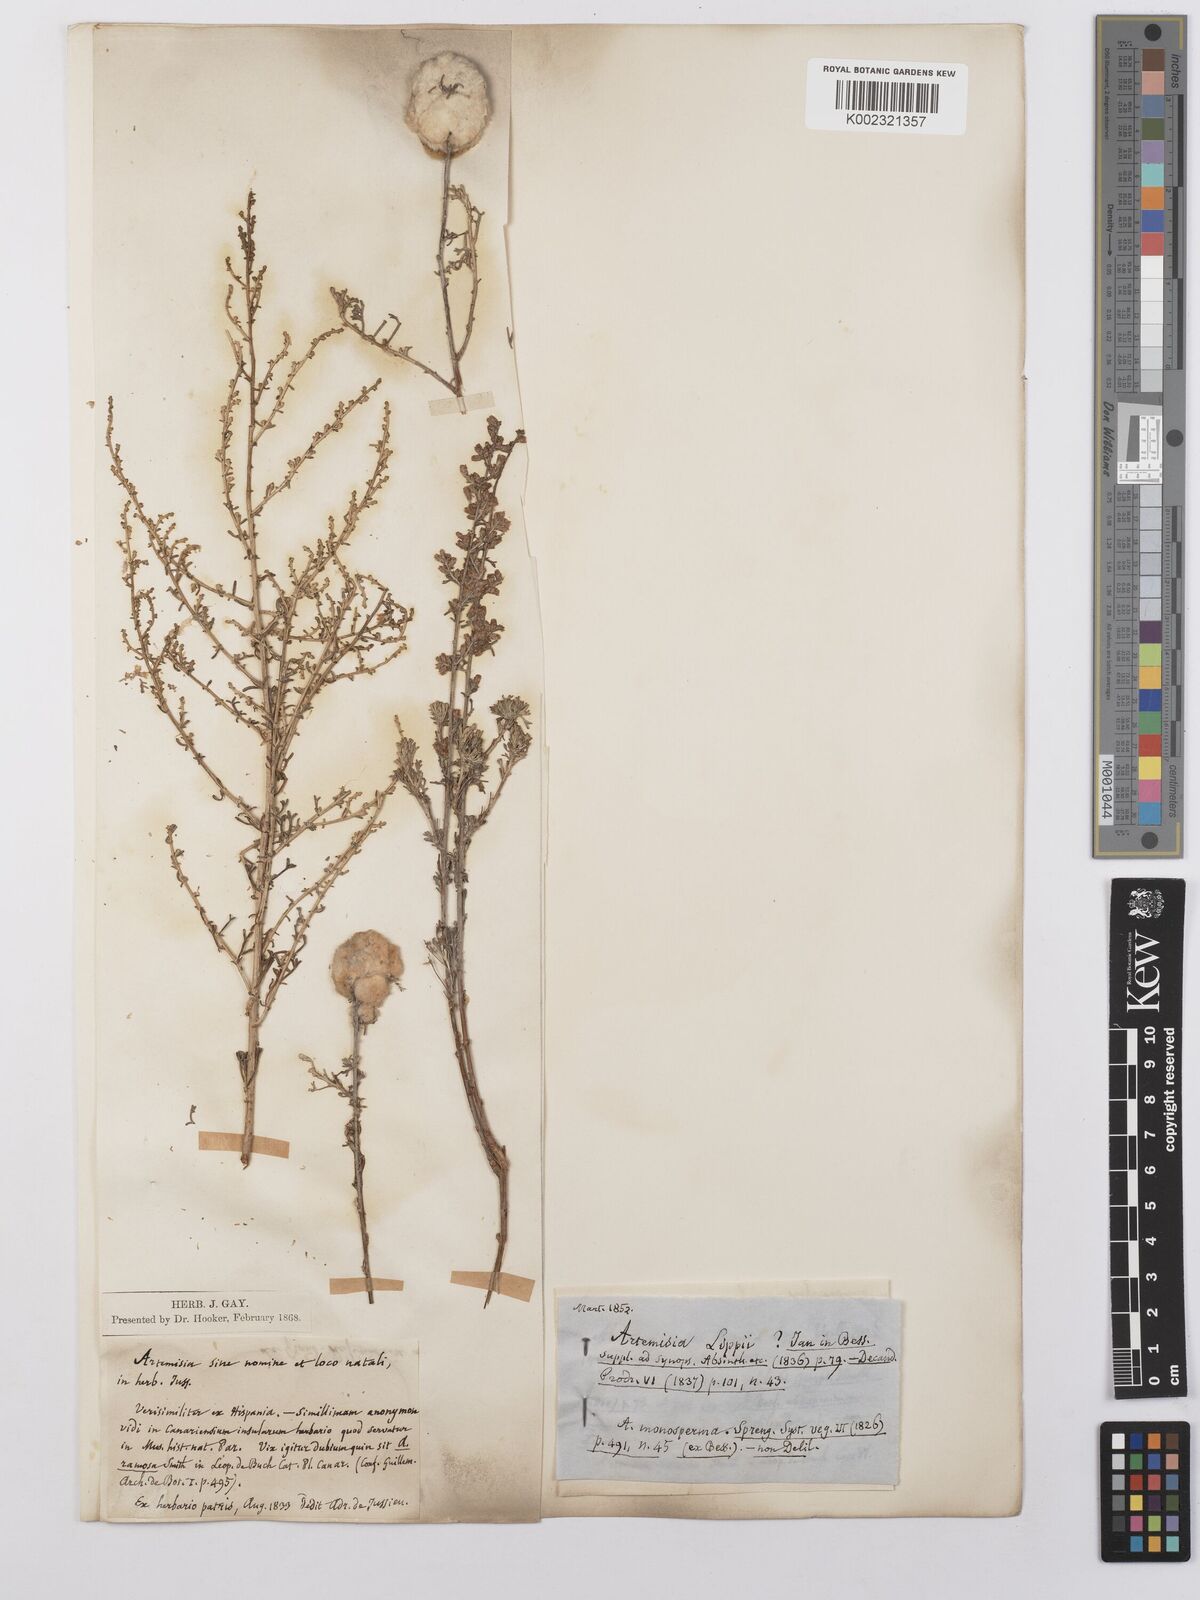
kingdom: Plantae
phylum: Tracheophyta
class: Magnoliopsida
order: Asterales
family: Asteraceae
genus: Artemisia
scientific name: Artemisia herba-alba
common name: White wormwood
